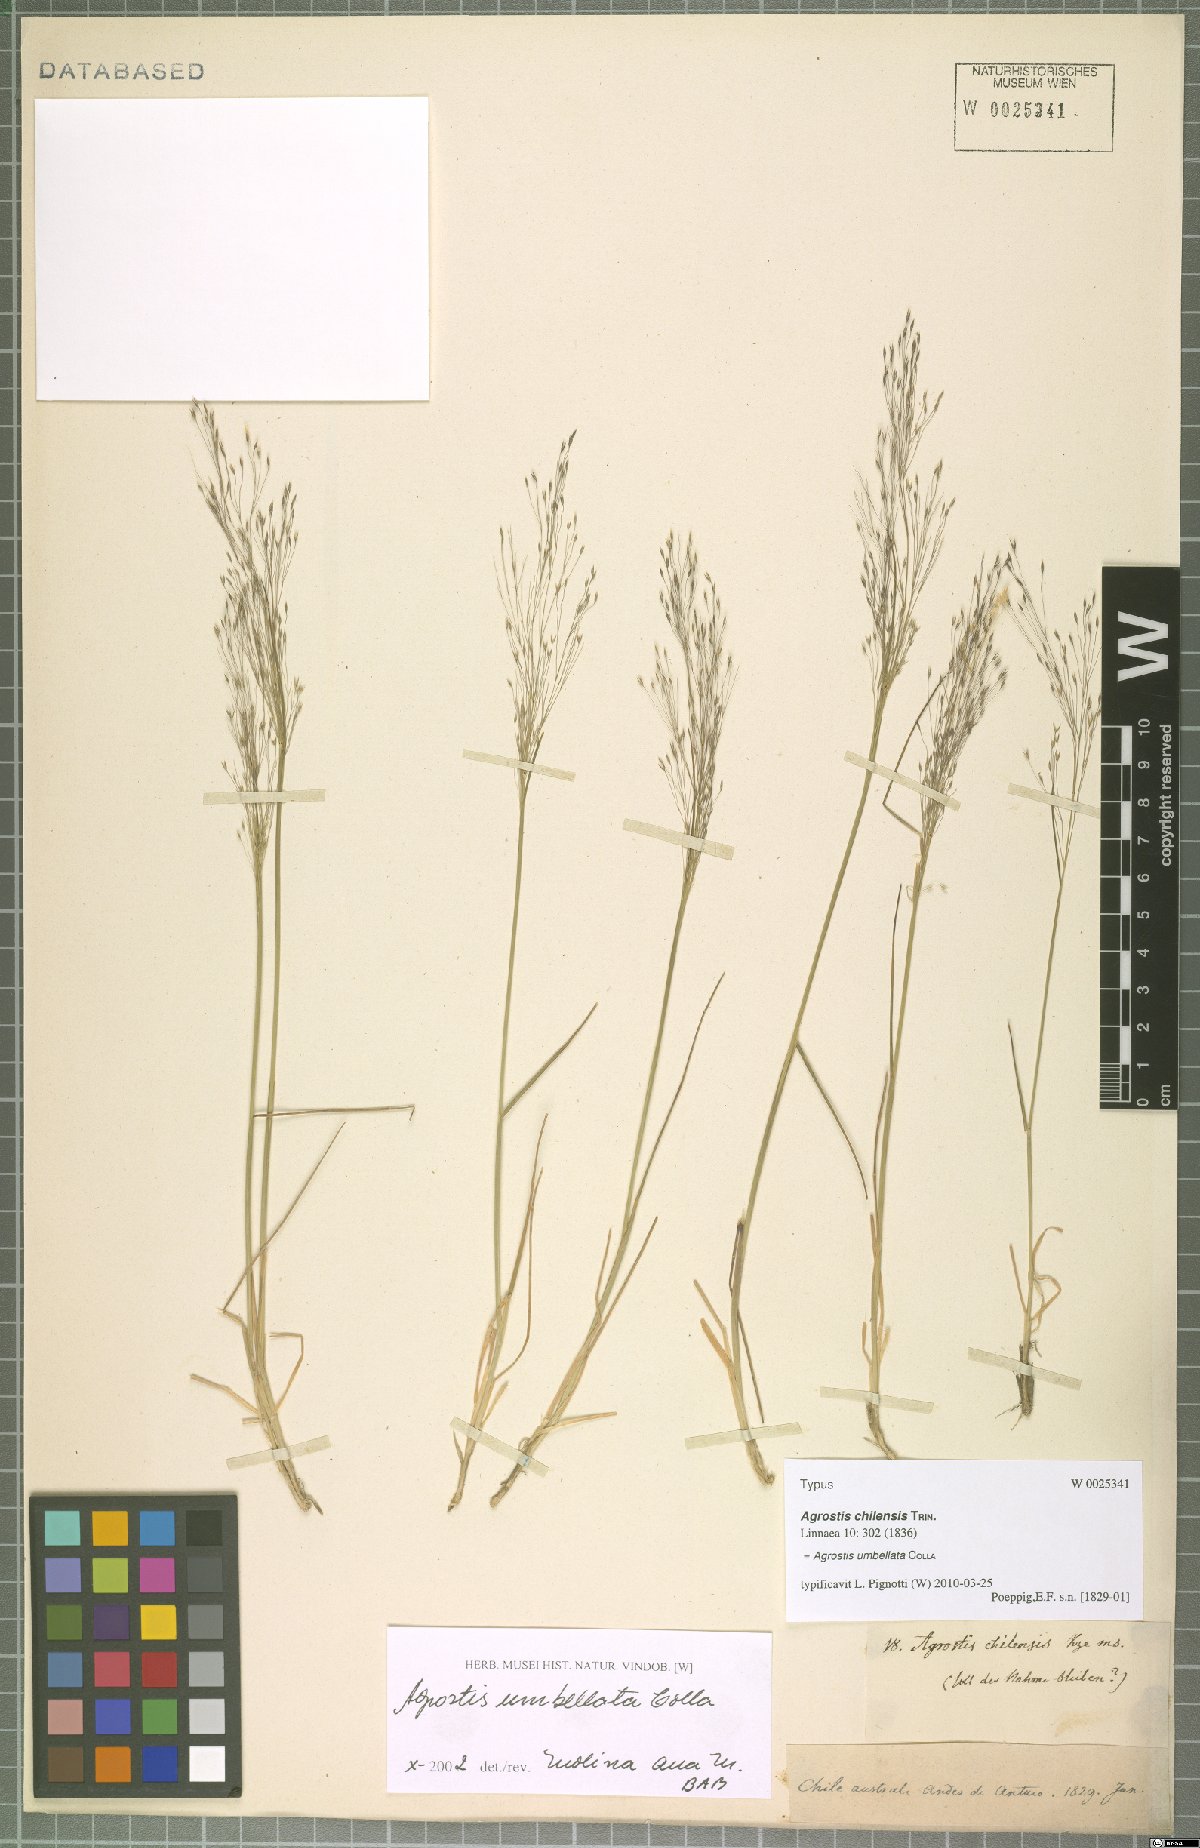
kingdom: Plantae
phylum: Tracheophyta
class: Liliopsida
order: Poales
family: Poaceae
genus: Agrostis
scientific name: Agrostis umbellata
